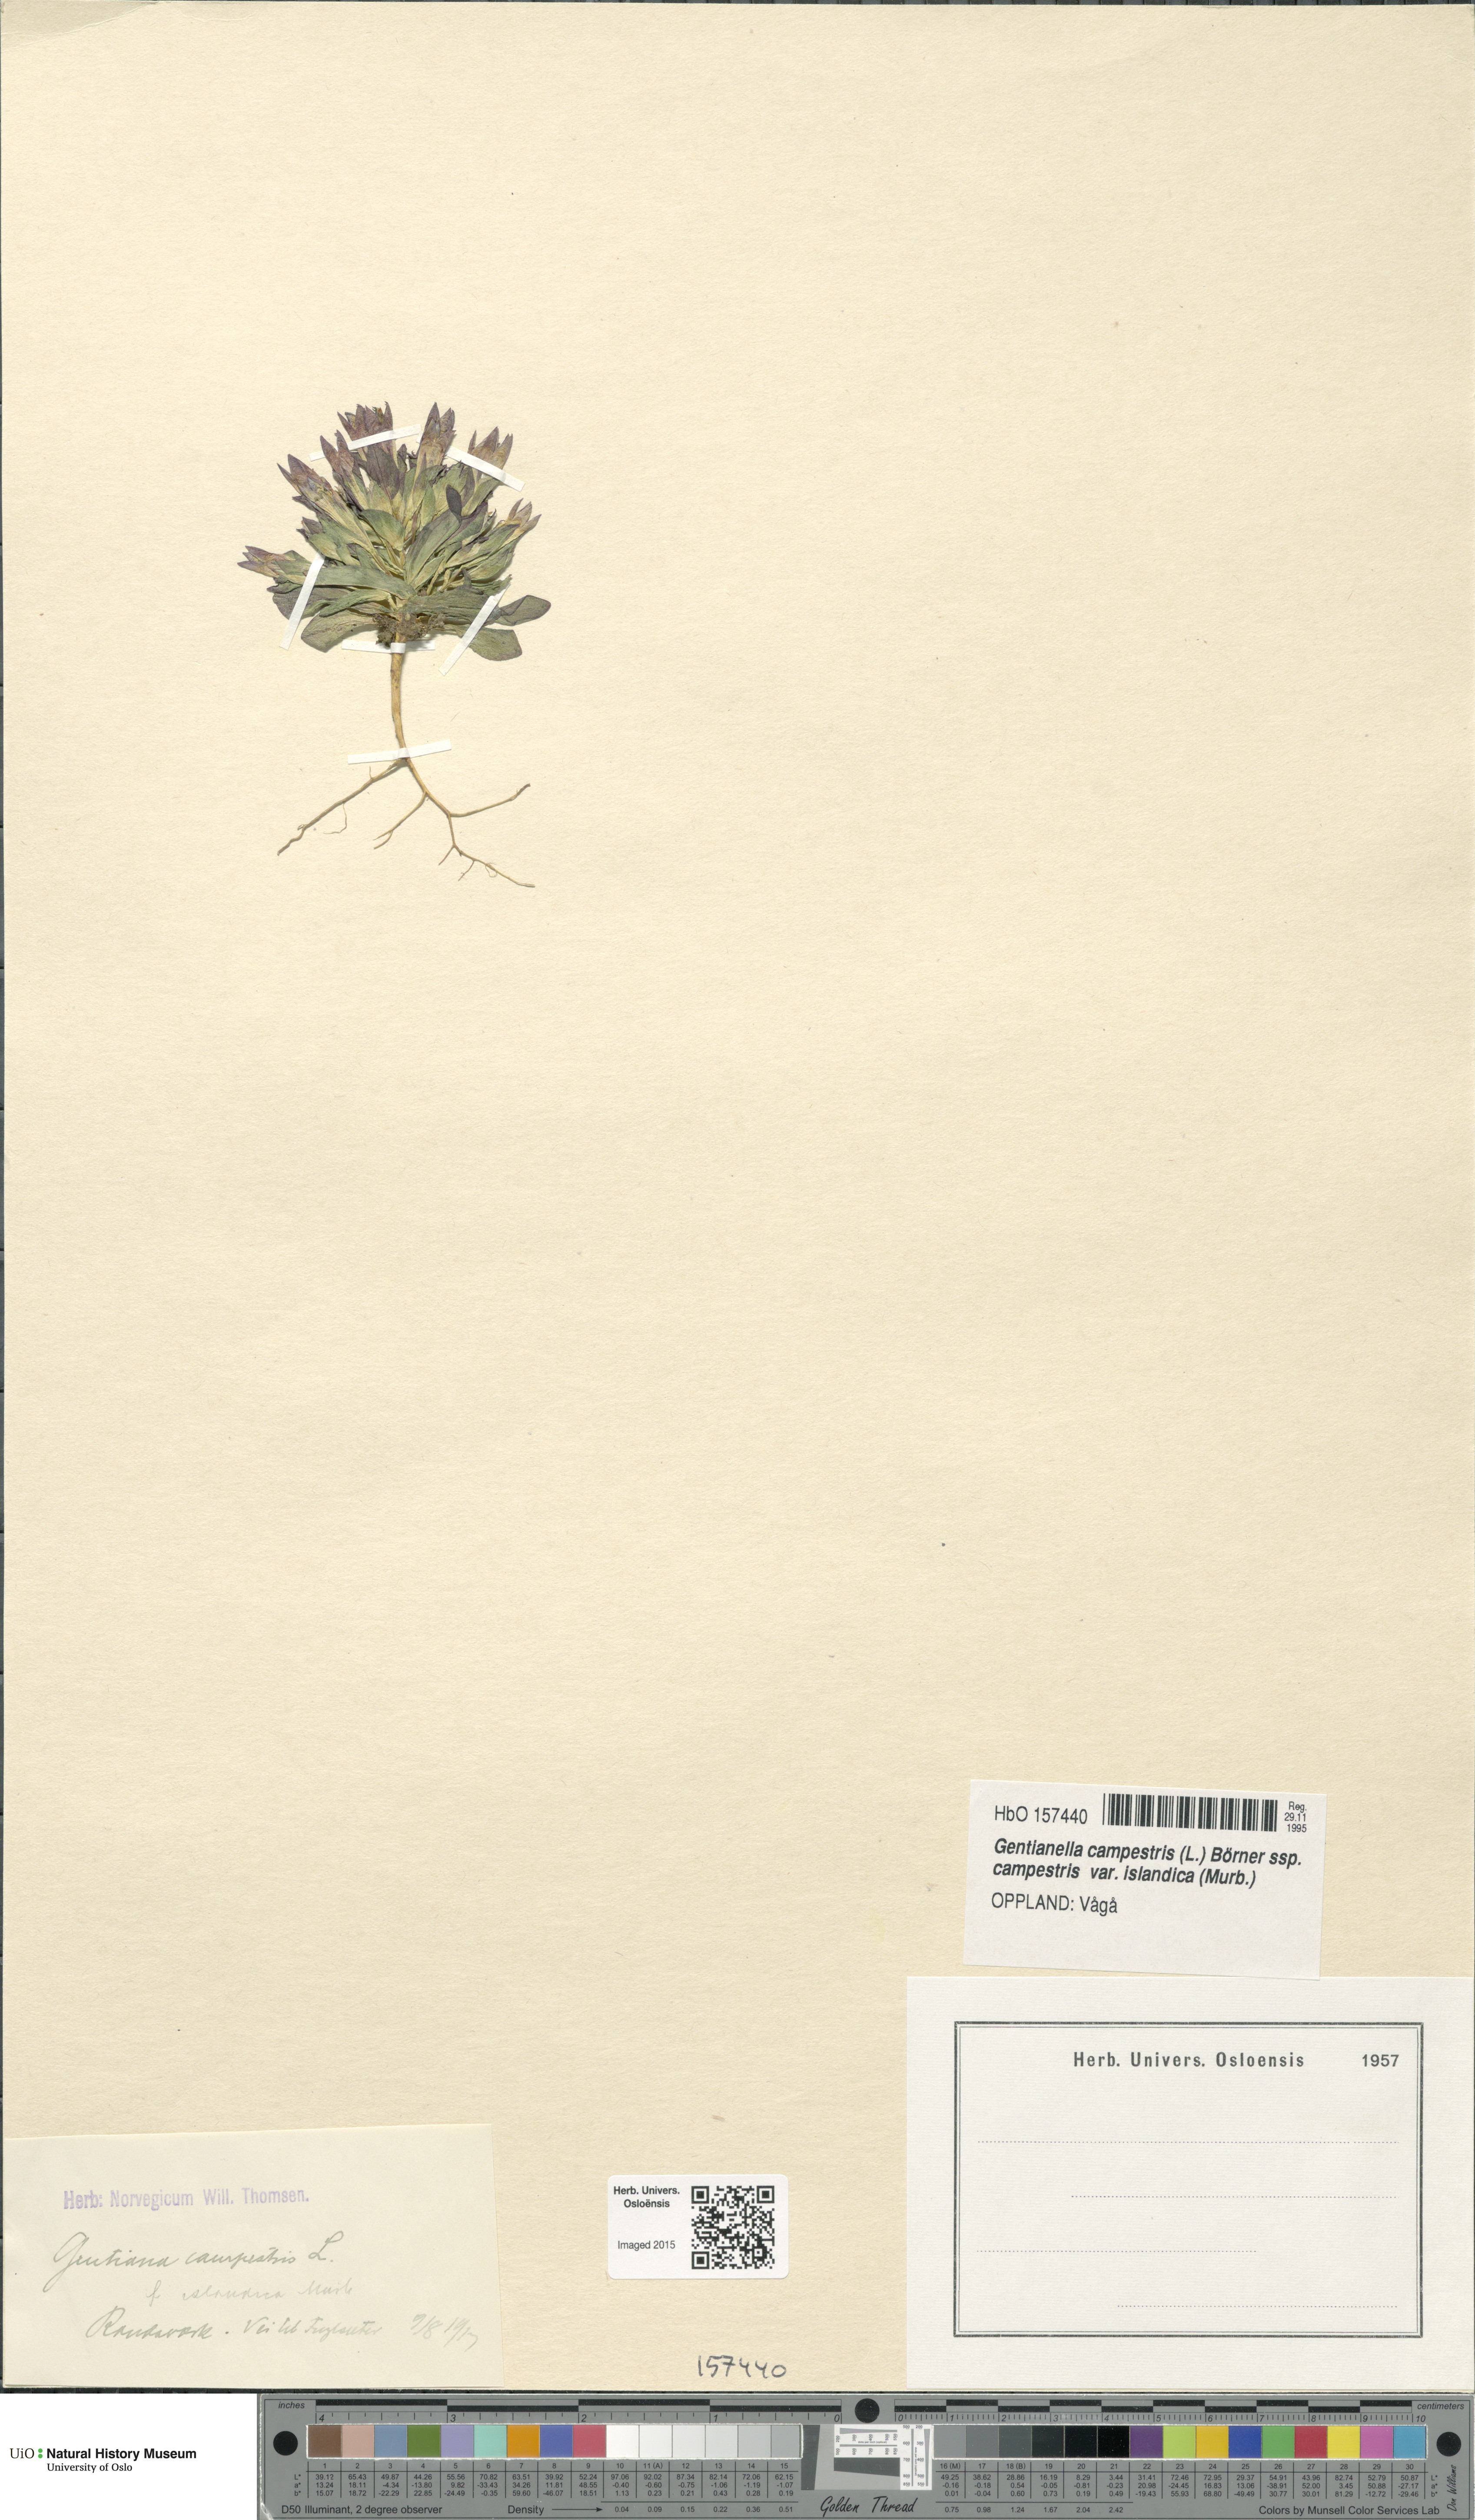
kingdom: Plantae
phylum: Tracheophyta
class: Magnoliopsida
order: Gentianales
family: Gentianaceae
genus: Gentianella
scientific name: Gentianella campestris
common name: Field gentian
